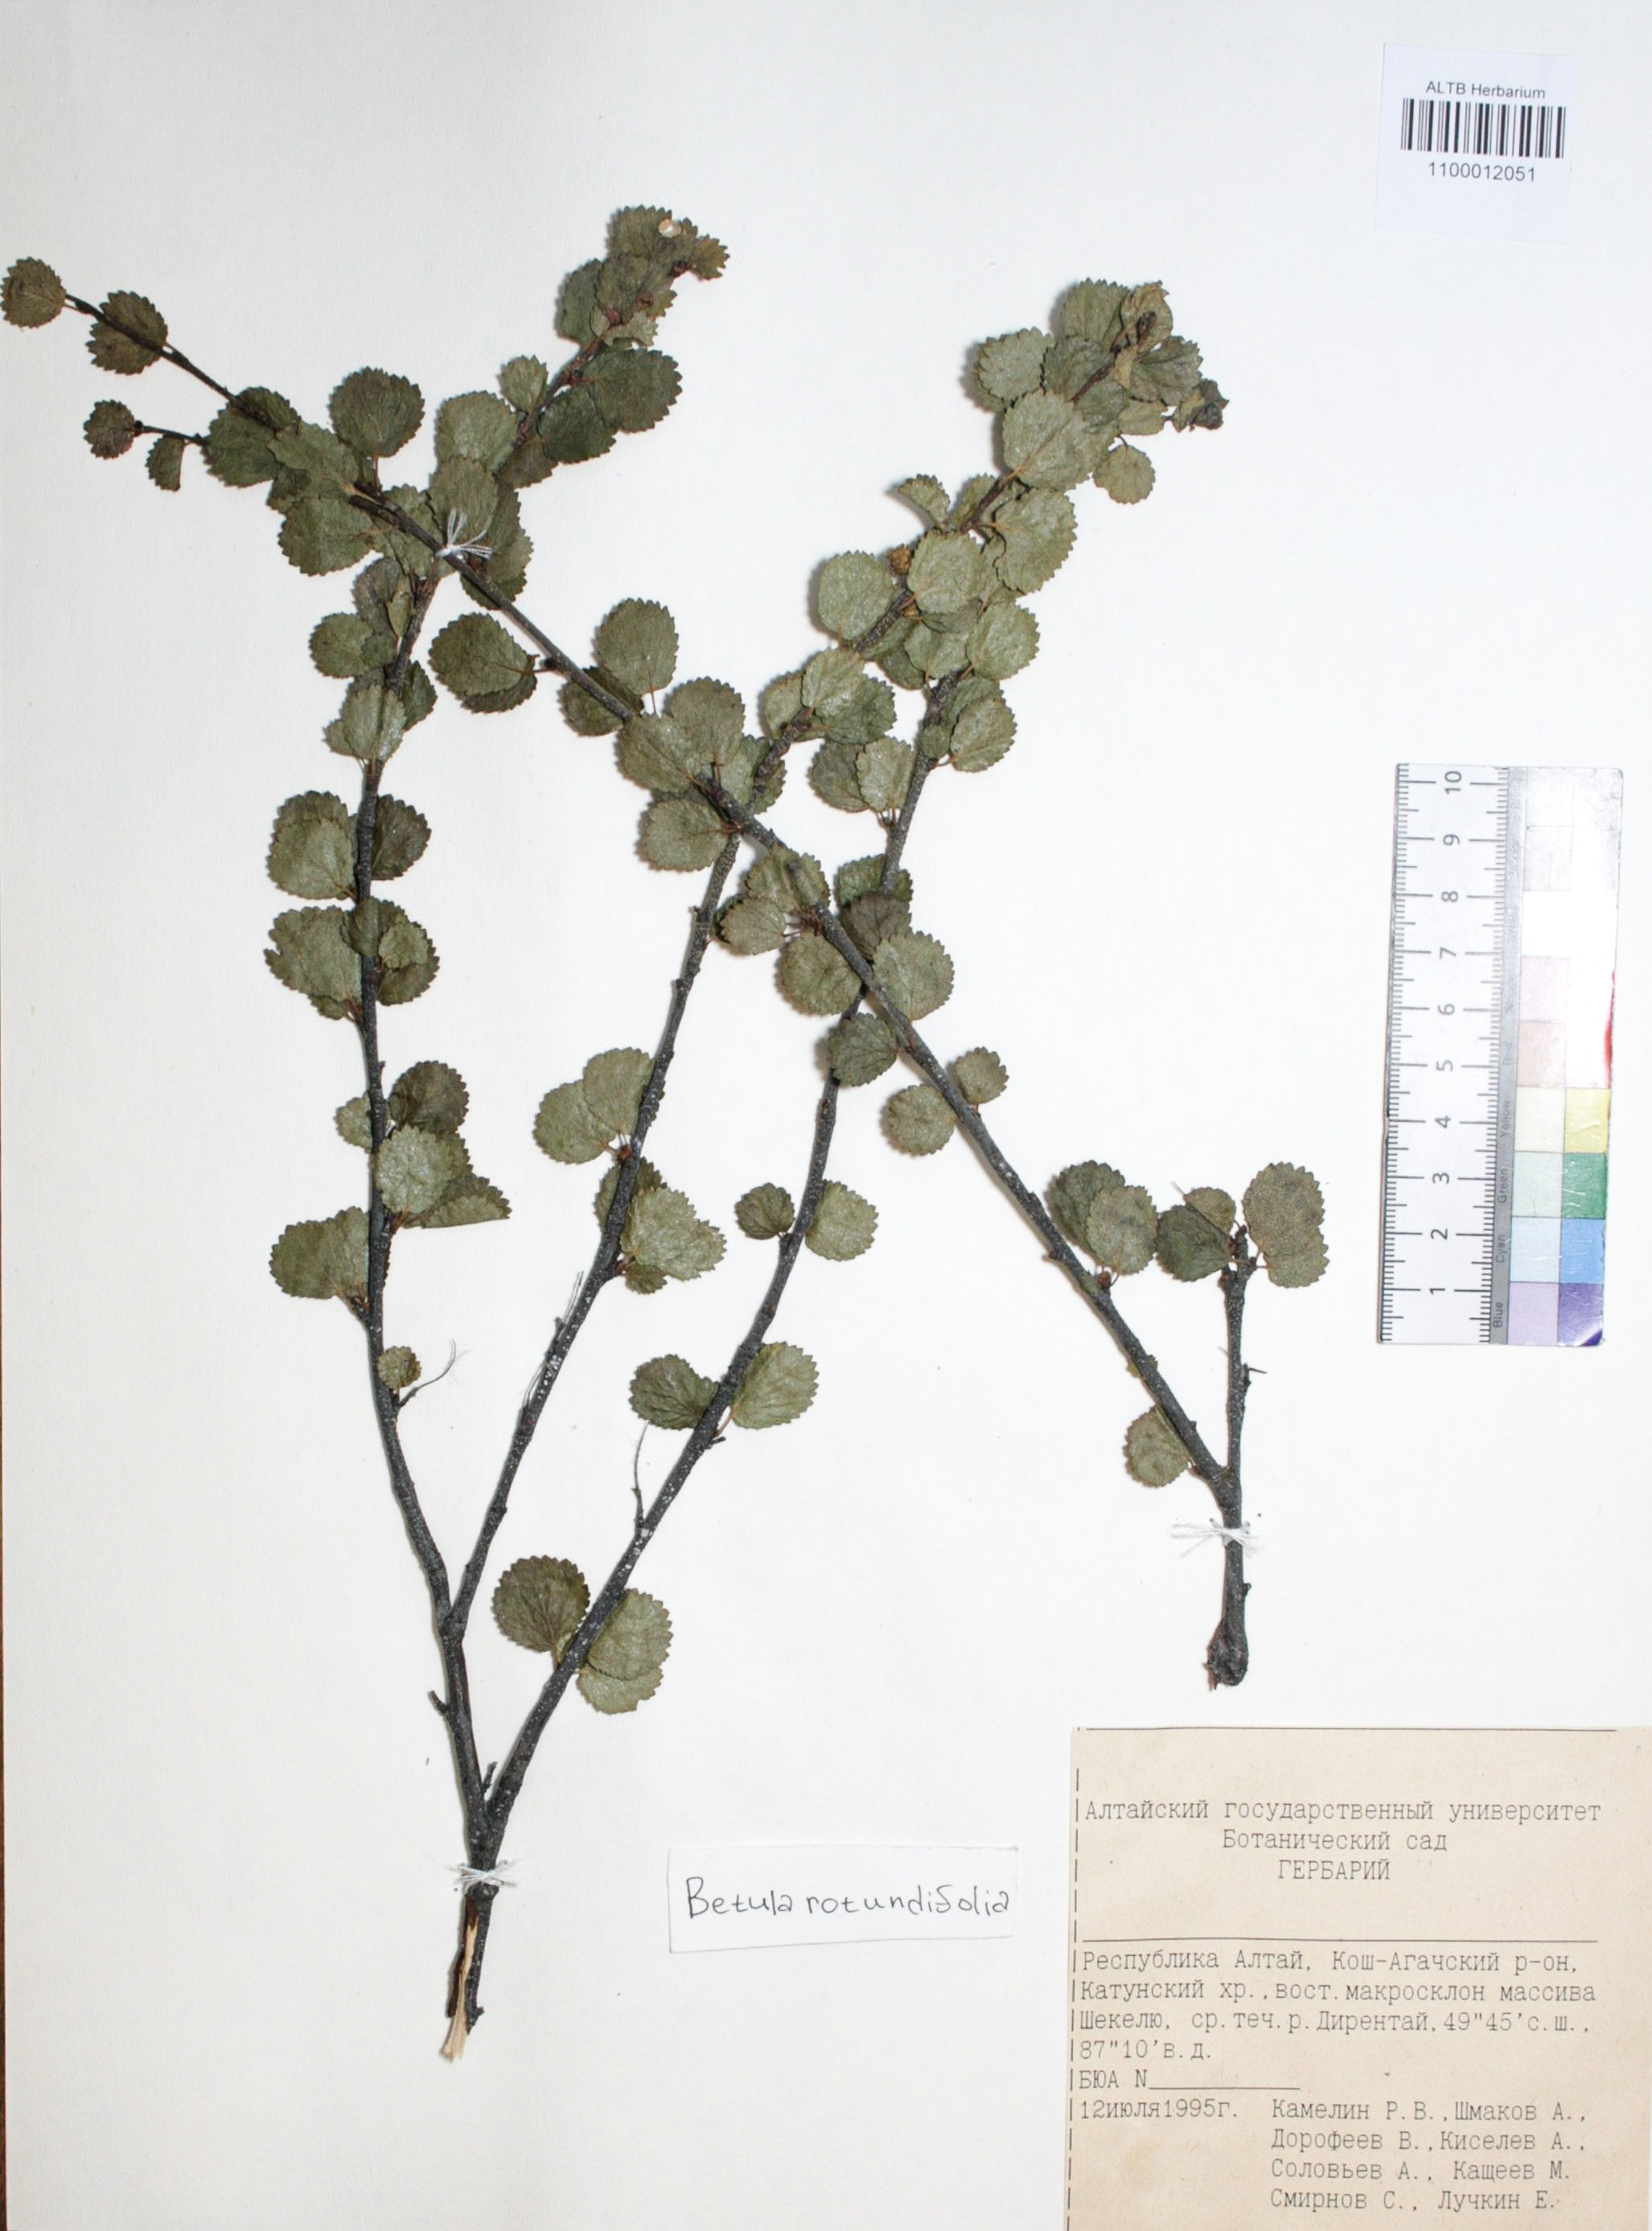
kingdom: Plantae
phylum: Tracheophyta
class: Magnoliopsida
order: Fagales
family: Betulaceae
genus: Betula
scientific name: Betula glandulosa
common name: Dwarf birch
